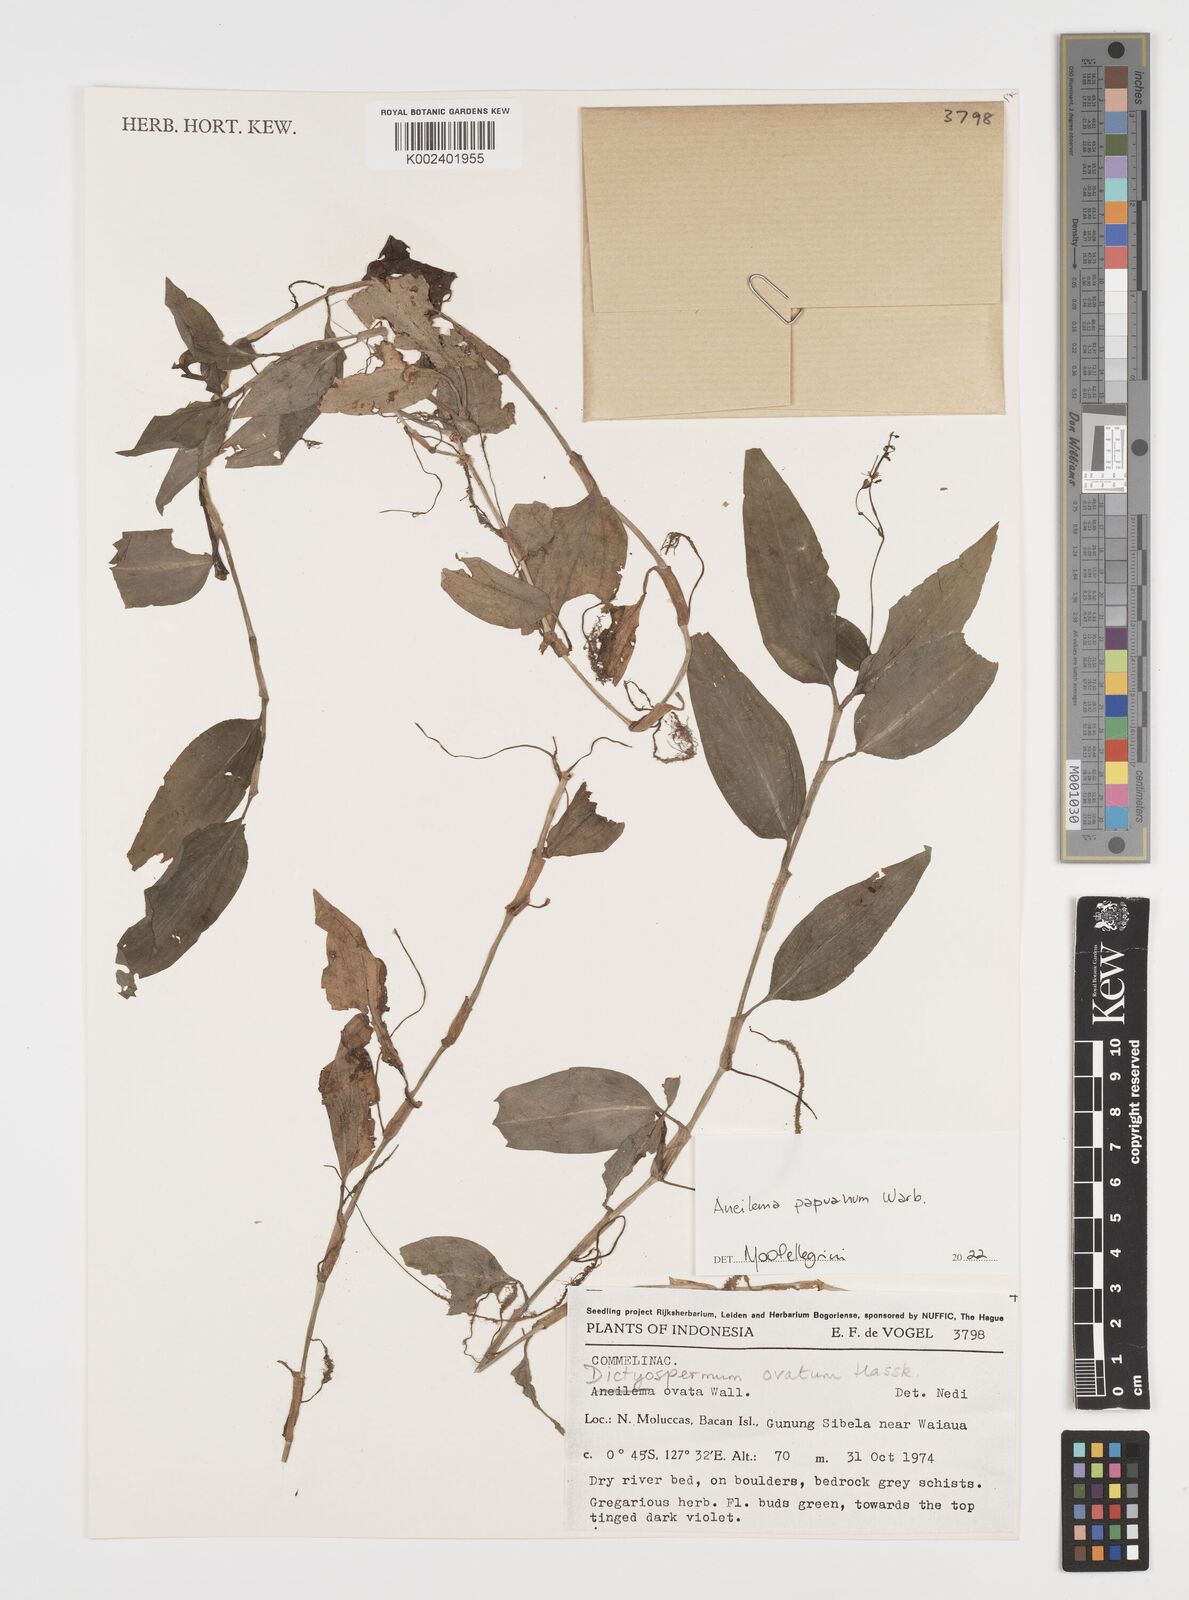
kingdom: Plantae
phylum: Tracheophyta
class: Liliopsida
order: Commelinales
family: Commelinaceae
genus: Rhopalephora
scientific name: Rhopalephora vitiensis
